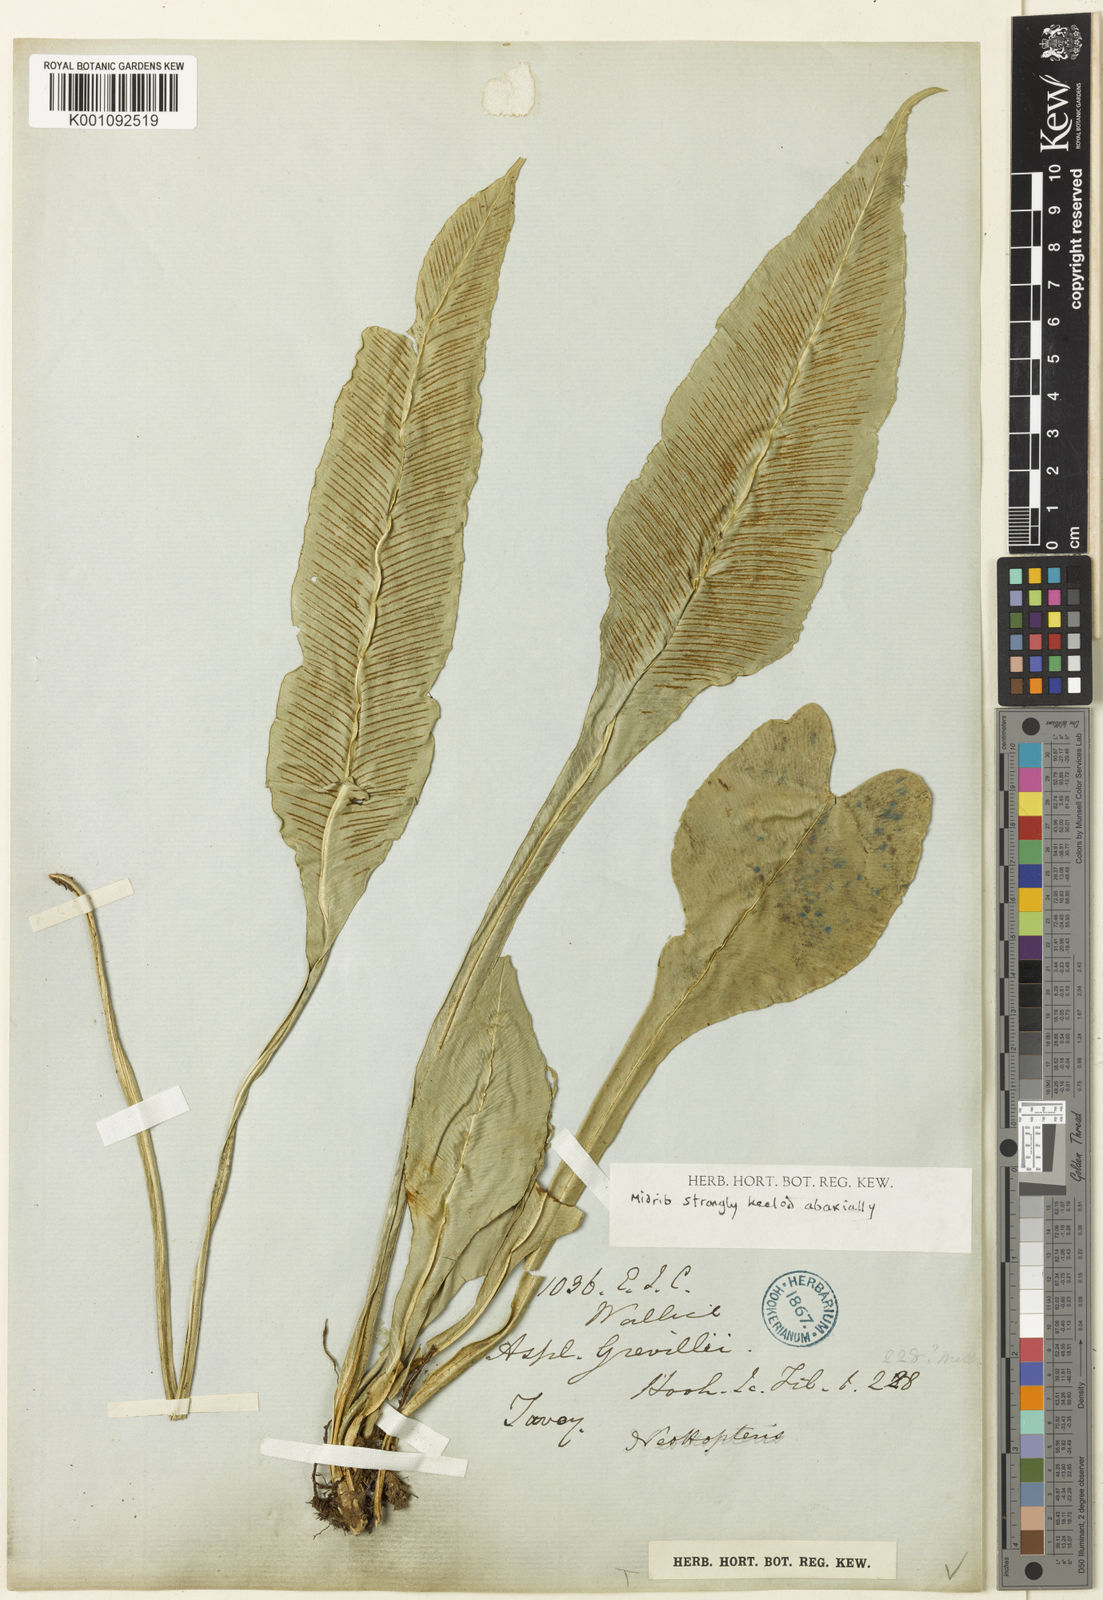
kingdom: Plantae
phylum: Tracheophyta
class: Polypodiopsida
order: Polypodiales
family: Aspleniaceae
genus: Asplenium
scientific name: Asplenium grevillei
